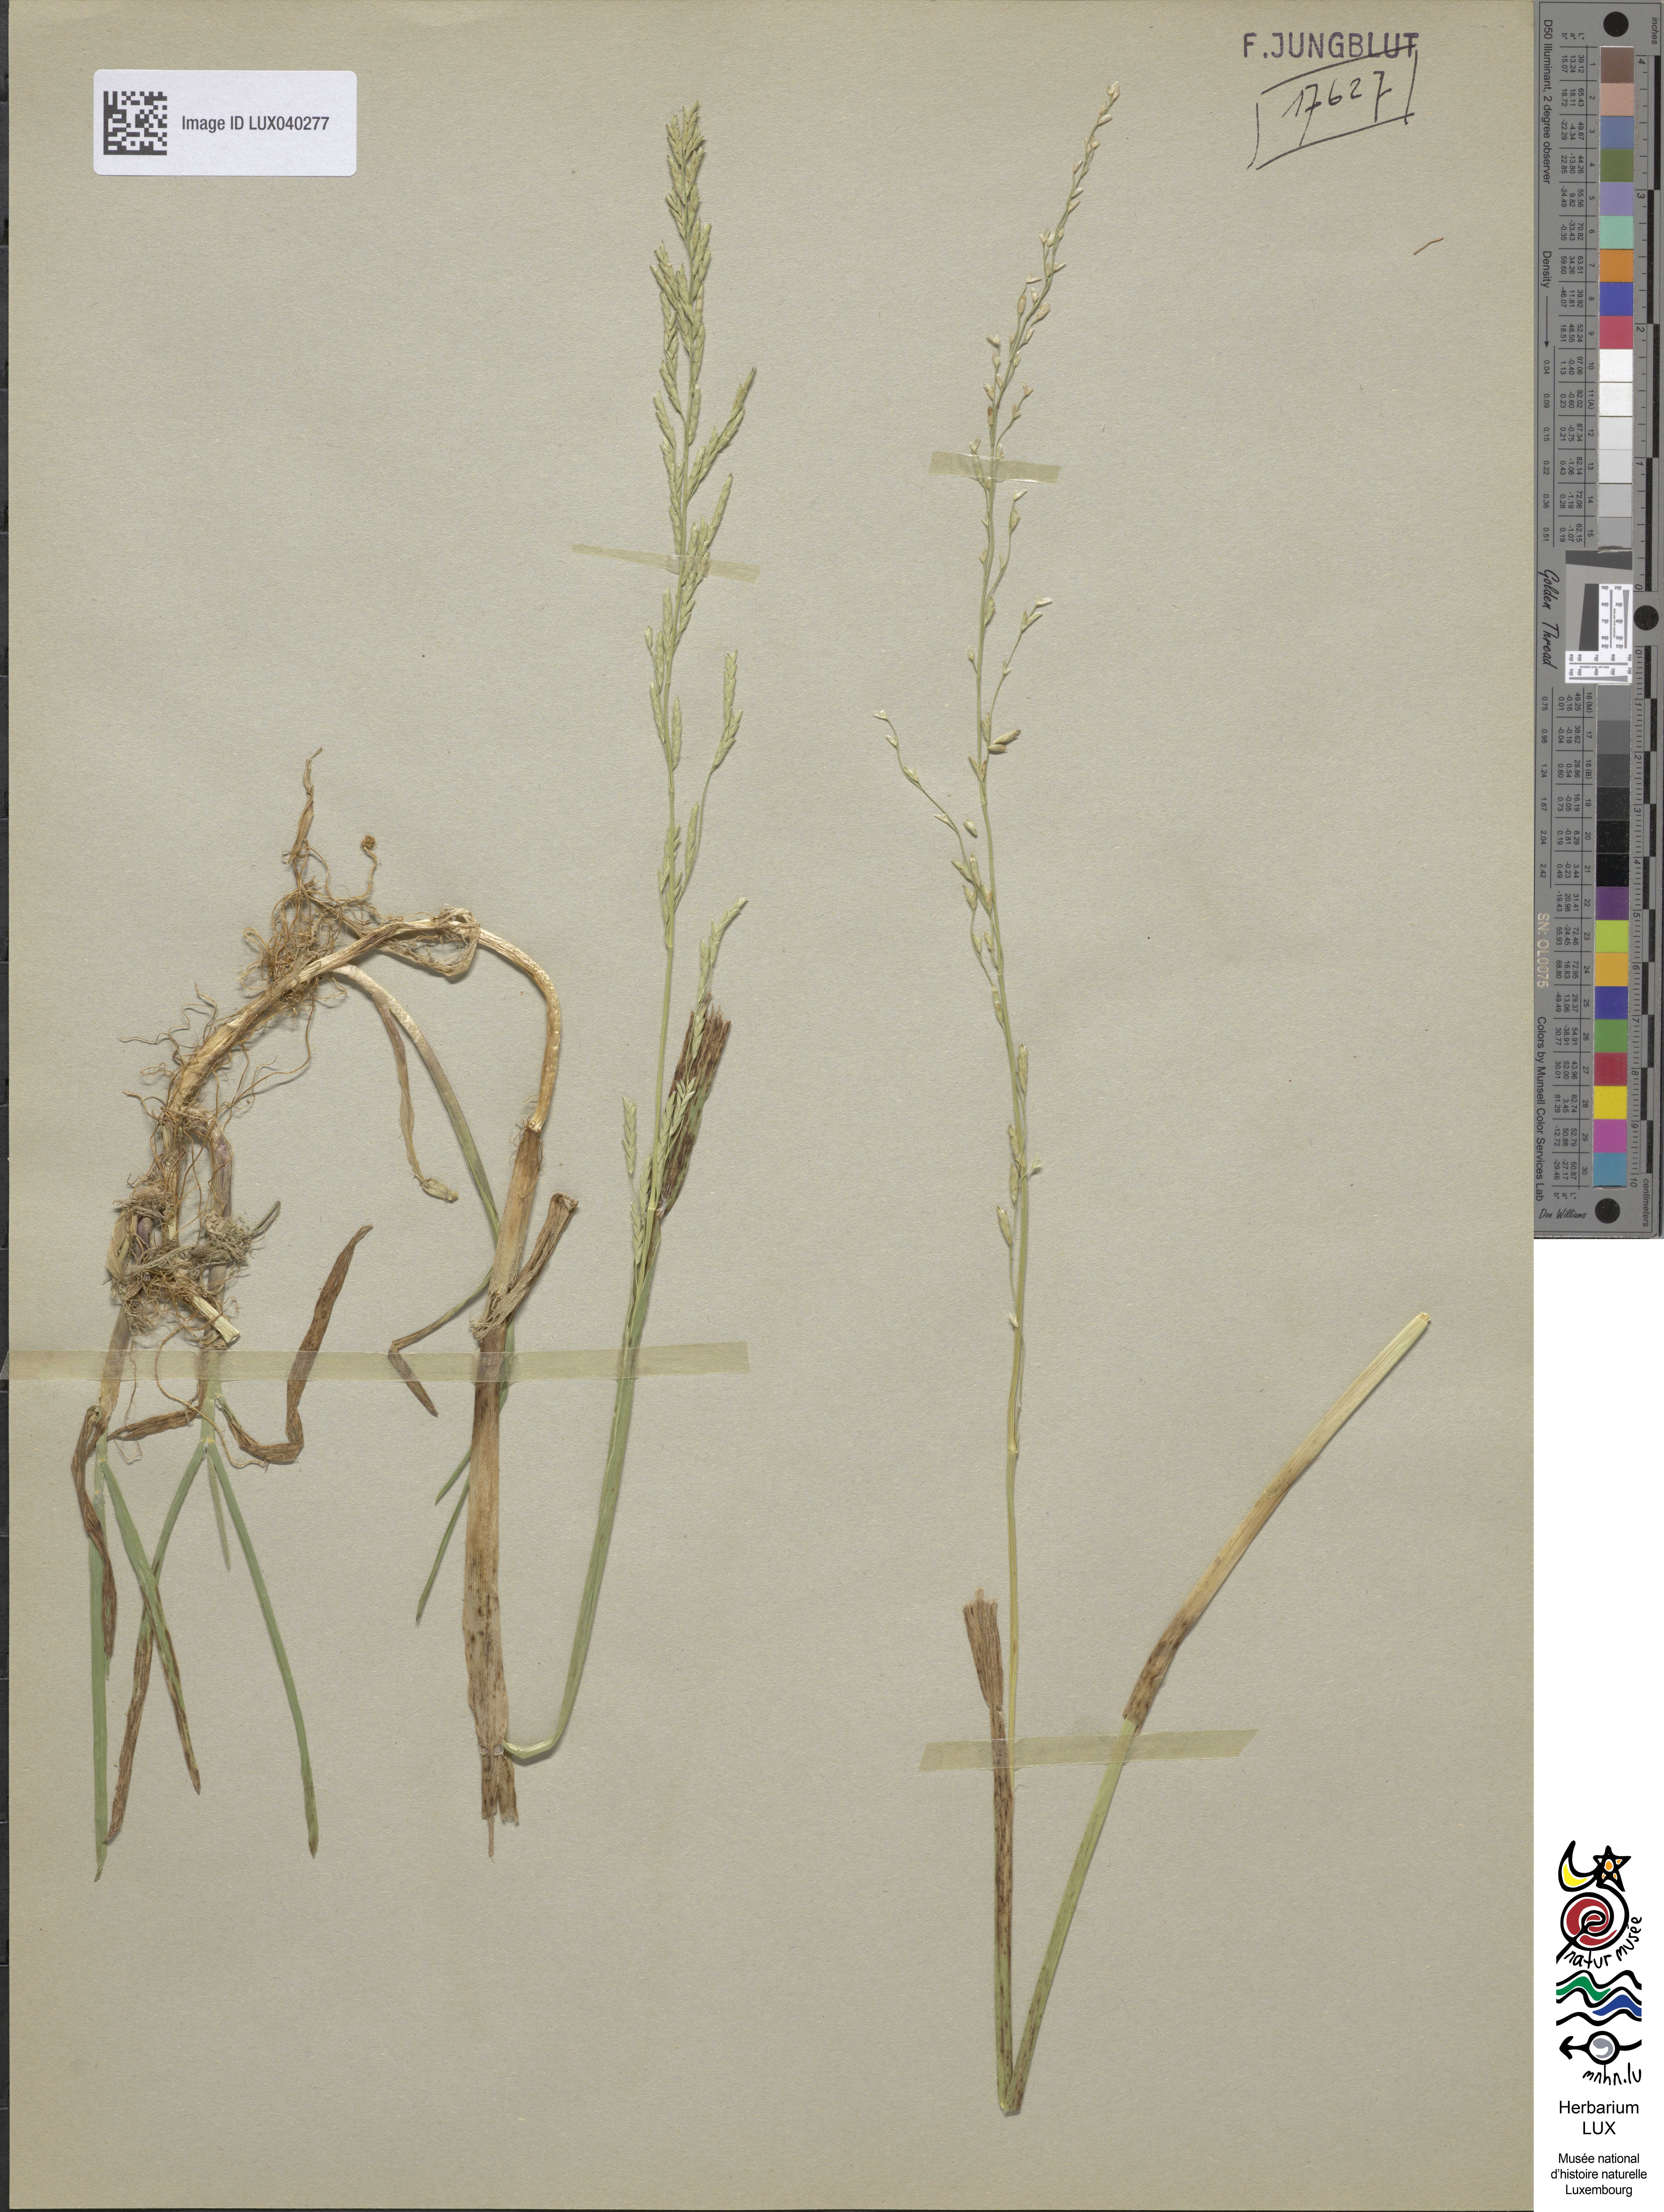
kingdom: Plantae
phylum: Tracheophyta
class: Liliopsida
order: Poales
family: Poaceae
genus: Glyceria
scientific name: Glyceria notata
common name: Plicate sweet-grass
